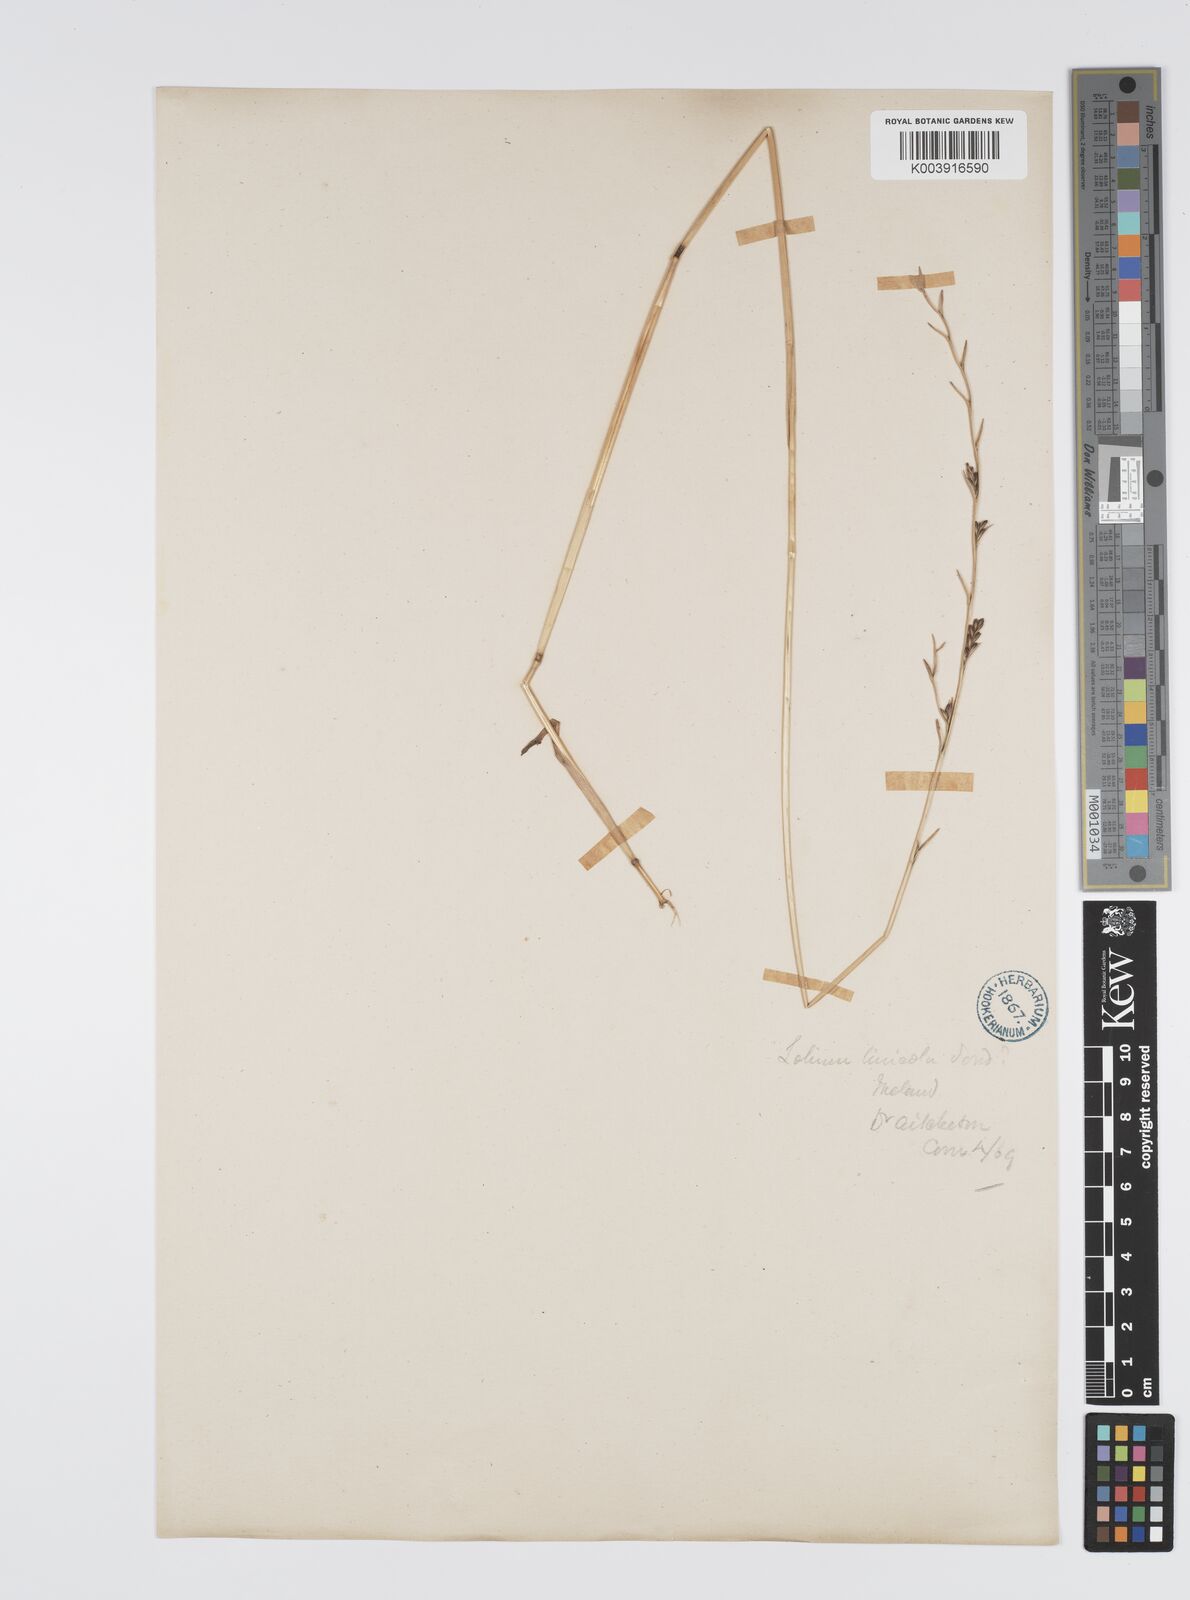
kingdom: Plantae
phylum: Tracheophyta
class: Liliopsida
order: Poales
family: Poaceae
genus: Lolium
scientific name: Lolium remotum
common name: Flaxfield rye-grass
